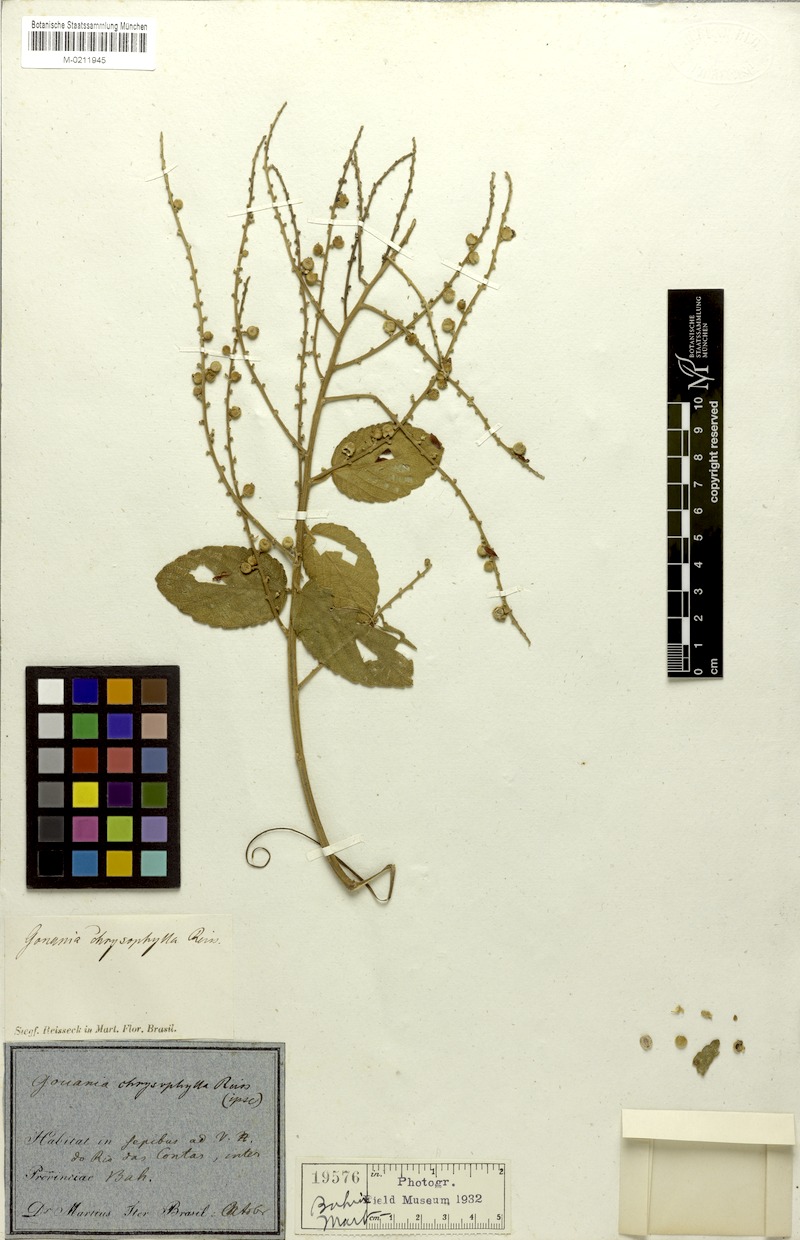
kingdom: Plantae
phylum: Tracheophyta
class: Magnoliopsida
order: Rosales
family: Rhamnaceae
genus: Gouania
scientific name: Gouania latifolia
